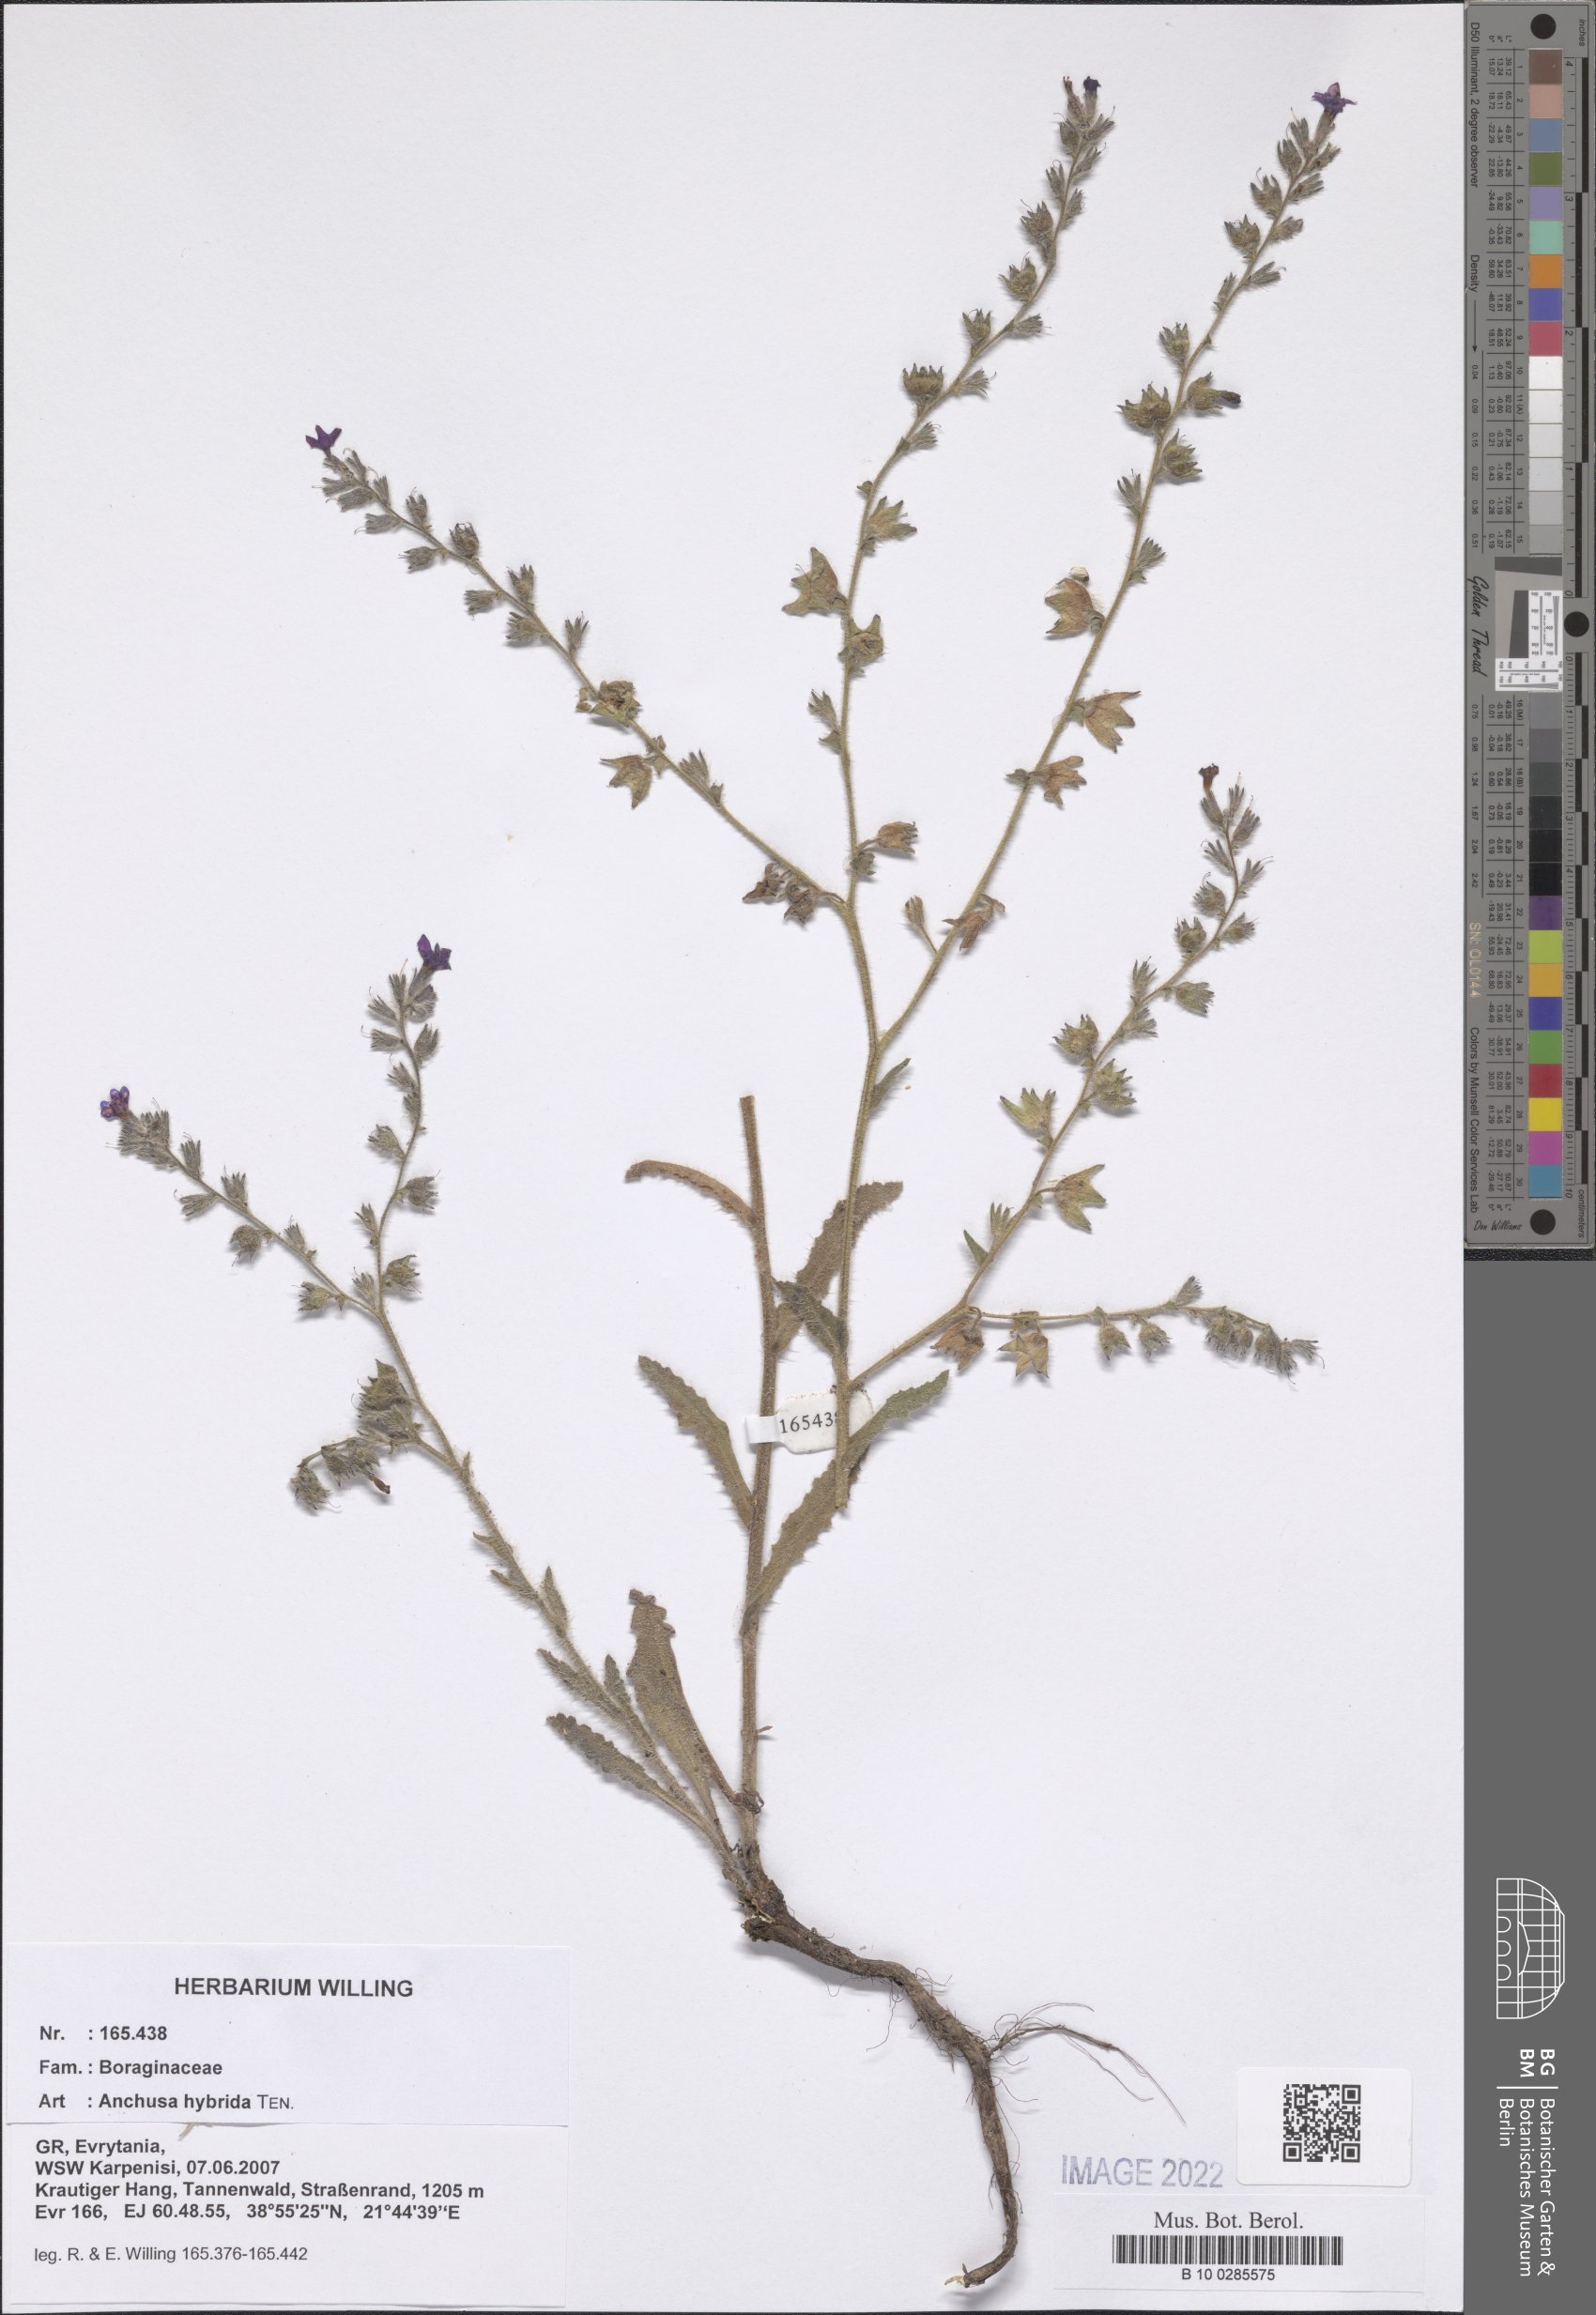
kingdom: Plantae
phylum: Tracheophyta
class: Magnoliopsida
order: Boraginales
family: Boraginaceae
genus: Anchusa
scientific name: Anchusa hybrida
